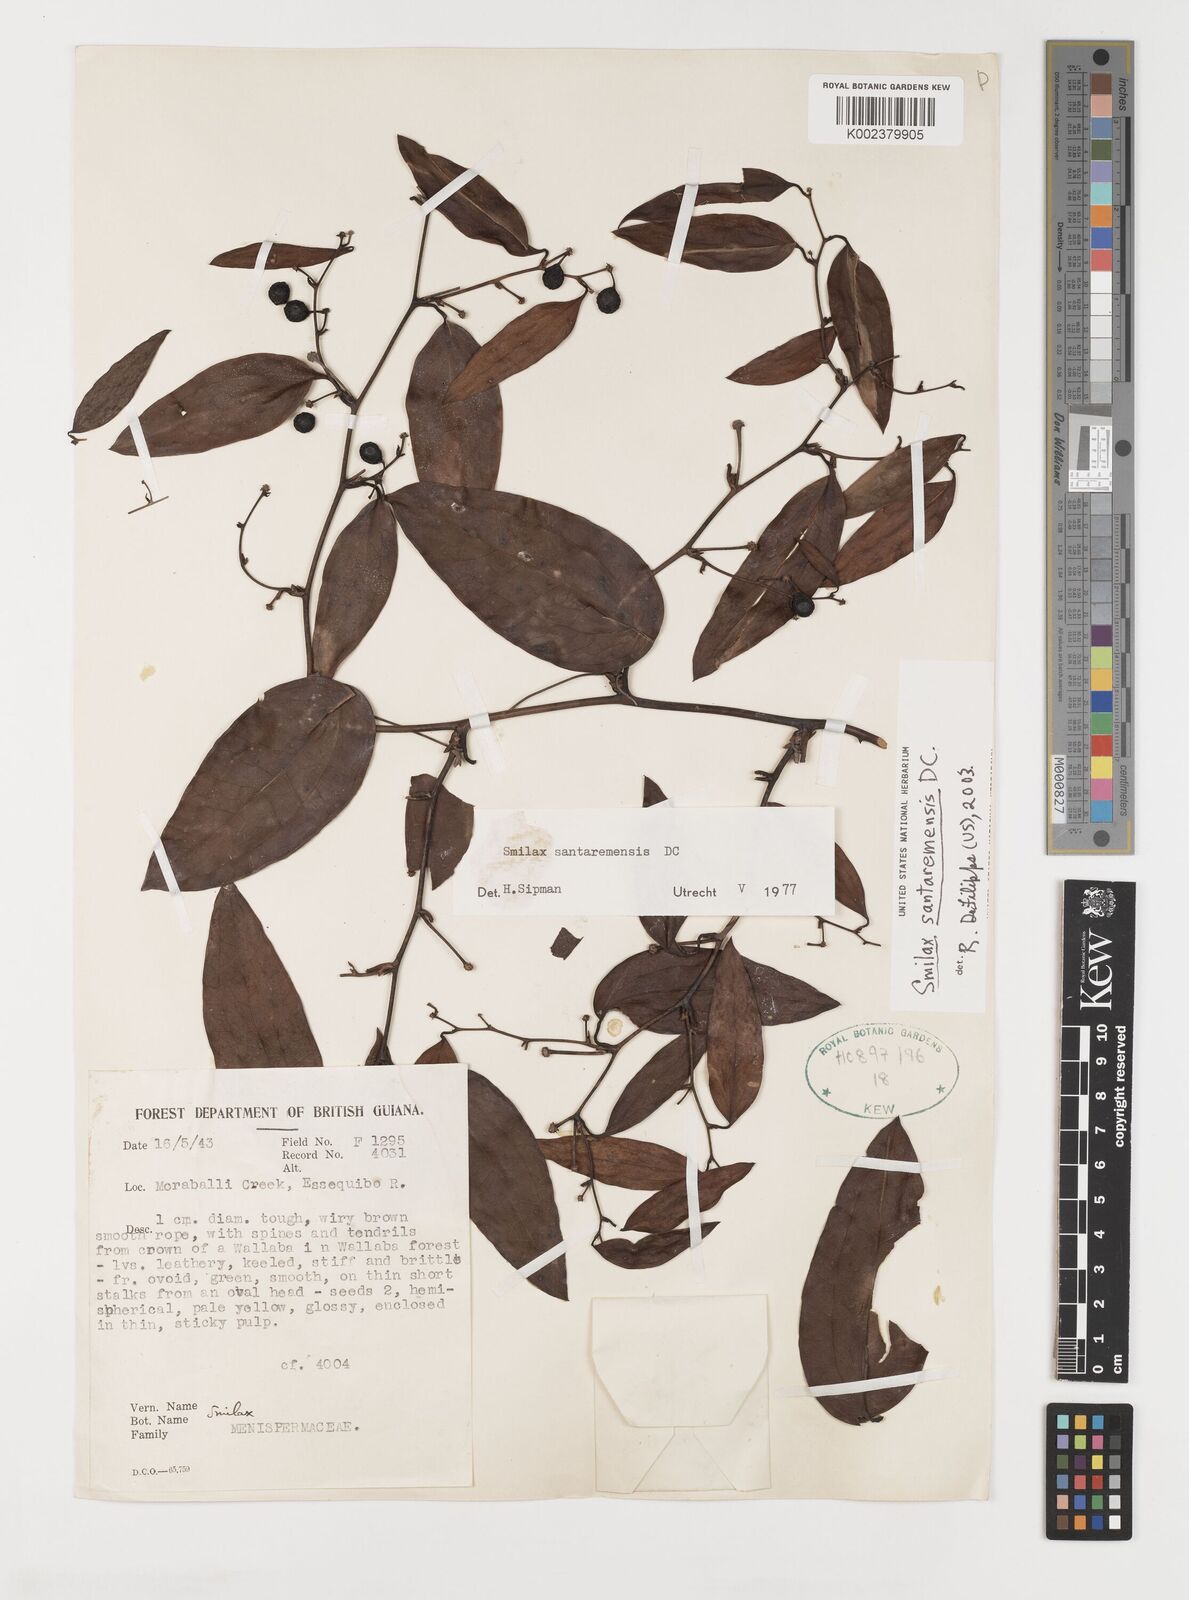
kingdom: Plantae
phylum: Tracheophyta
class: Liliopsida
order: Liliales
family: Smilacaceae
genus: Smilax
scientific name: Smilax santaremensis
